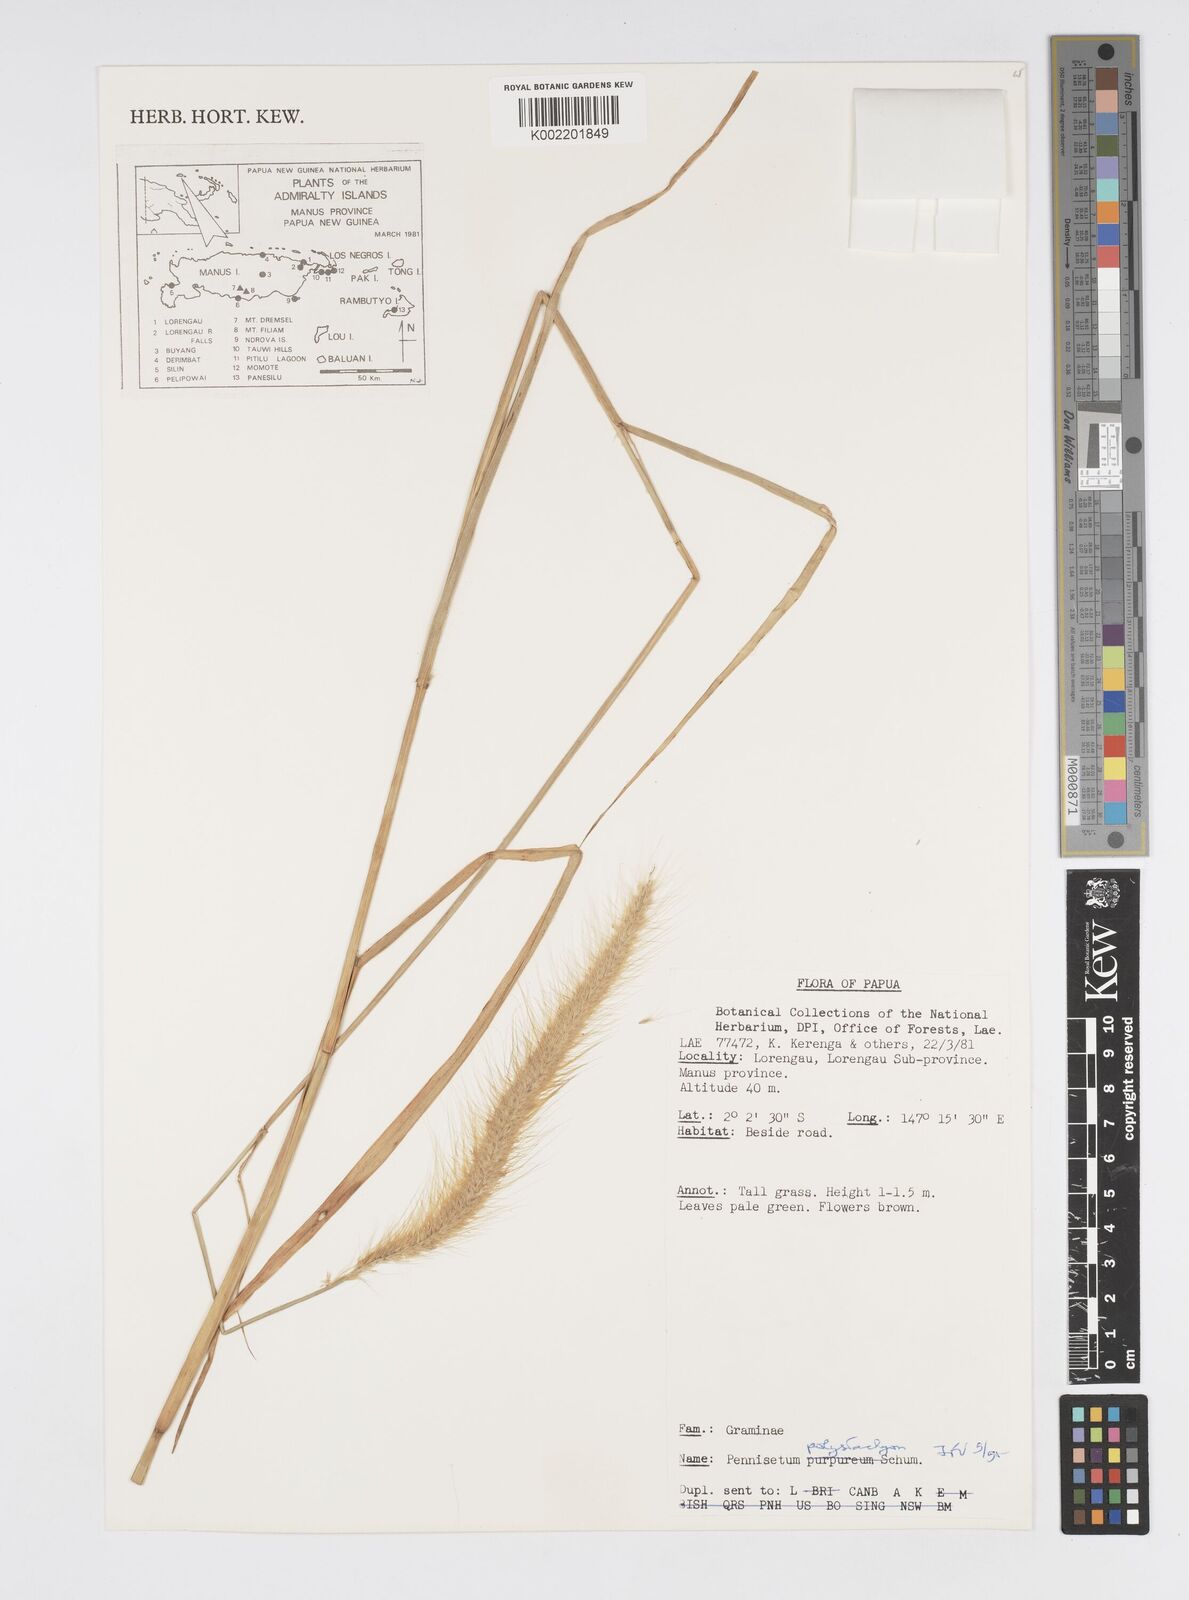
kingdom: Plantae
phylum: Tracheophyta
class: Liliopsida
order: Poales
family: Poaceae
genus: Setaria
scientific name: Setaria parviflora
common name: Knotroot bristle-grass
